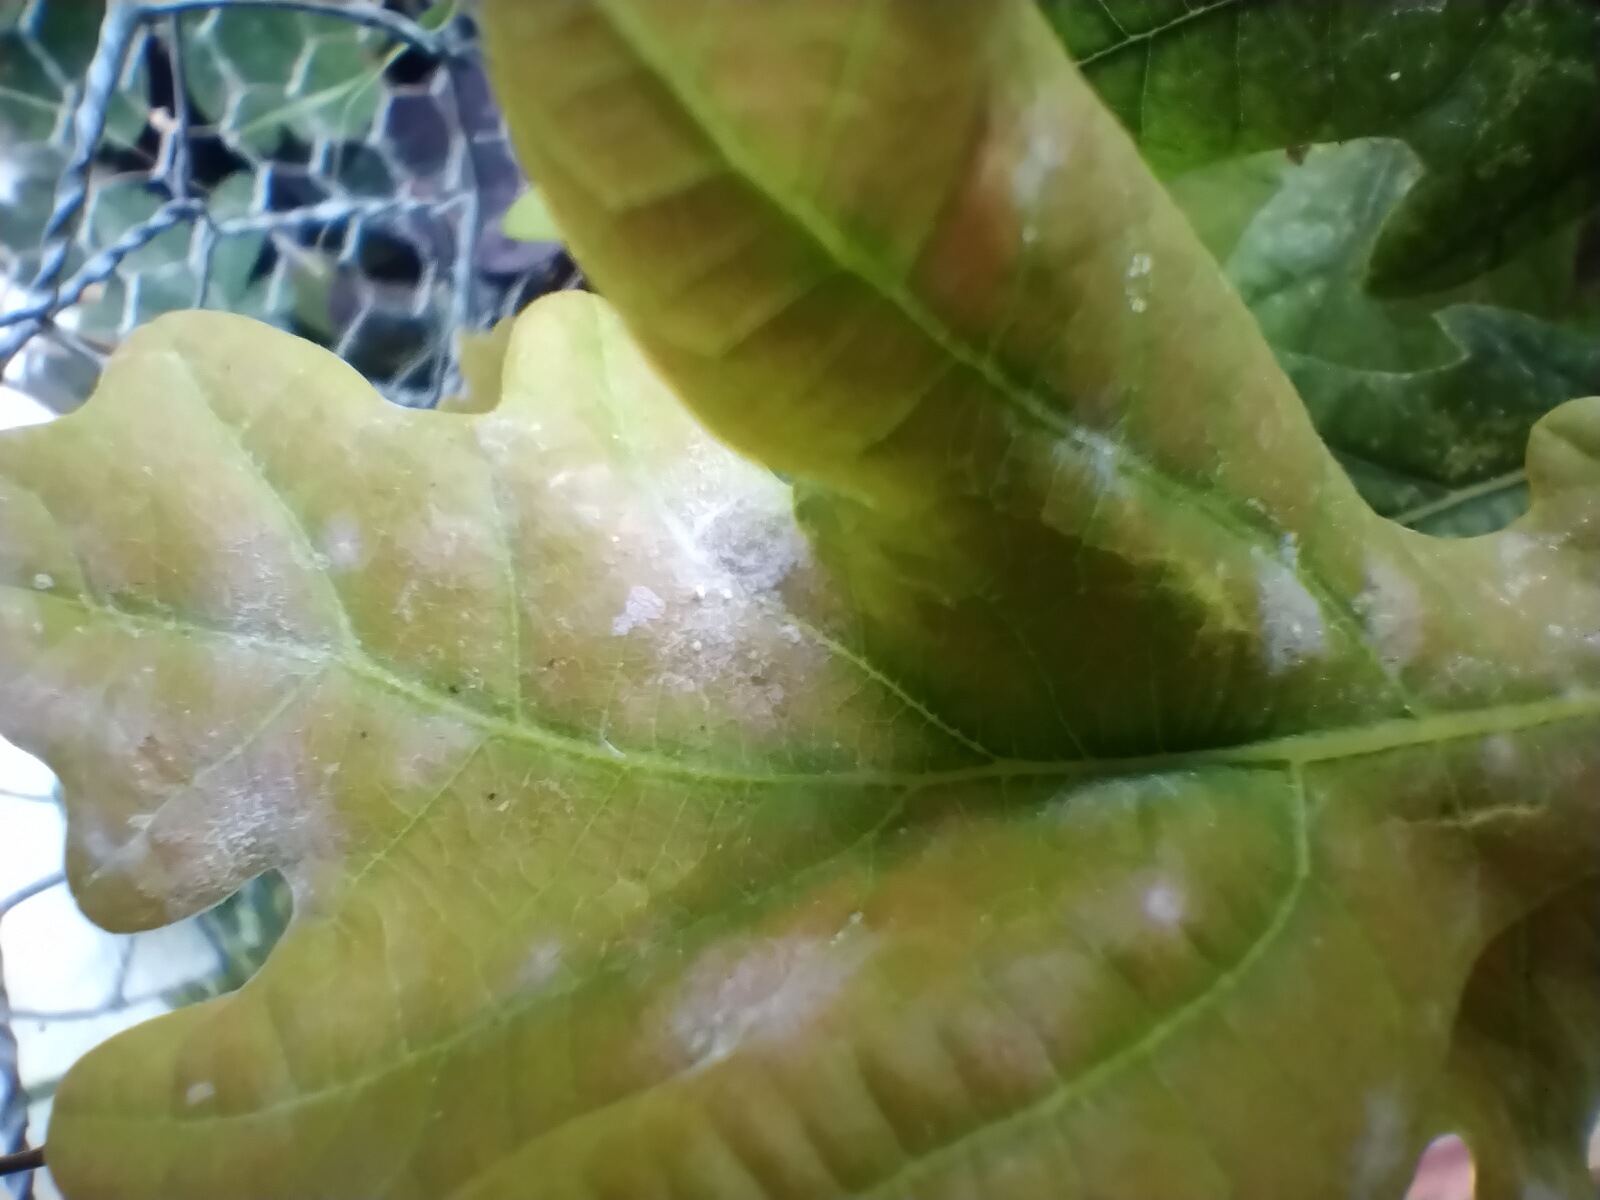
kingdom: Fungi
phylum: Ascomycota
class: Leotiomycetes
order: Helotiales
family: Erysiphaceae
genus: Erysiphe
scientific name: Erysiphe alphitoides
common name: ege-meldug
